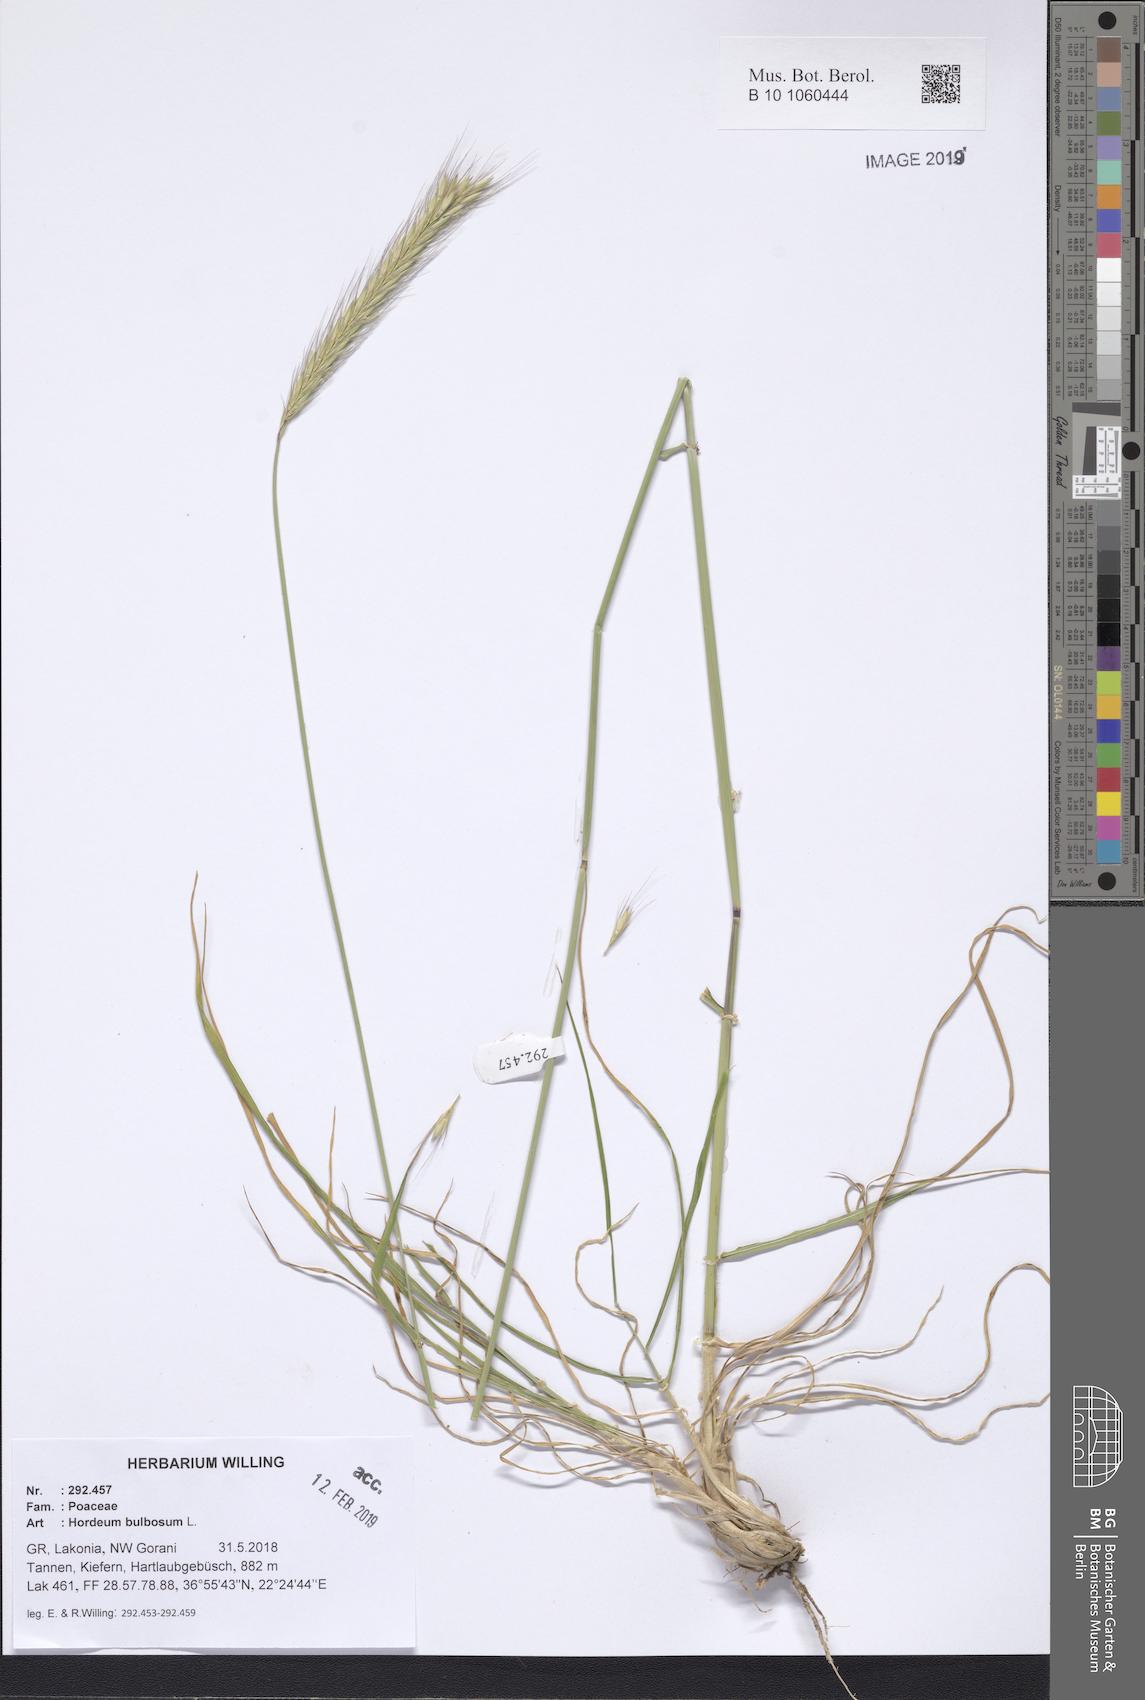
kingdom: Plantae
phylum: Tracheophyta
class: Liliopsida
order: Poales
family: Poaceae
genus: Hordeum
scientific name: Hordeum bulbosum
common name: Bulbous barley
